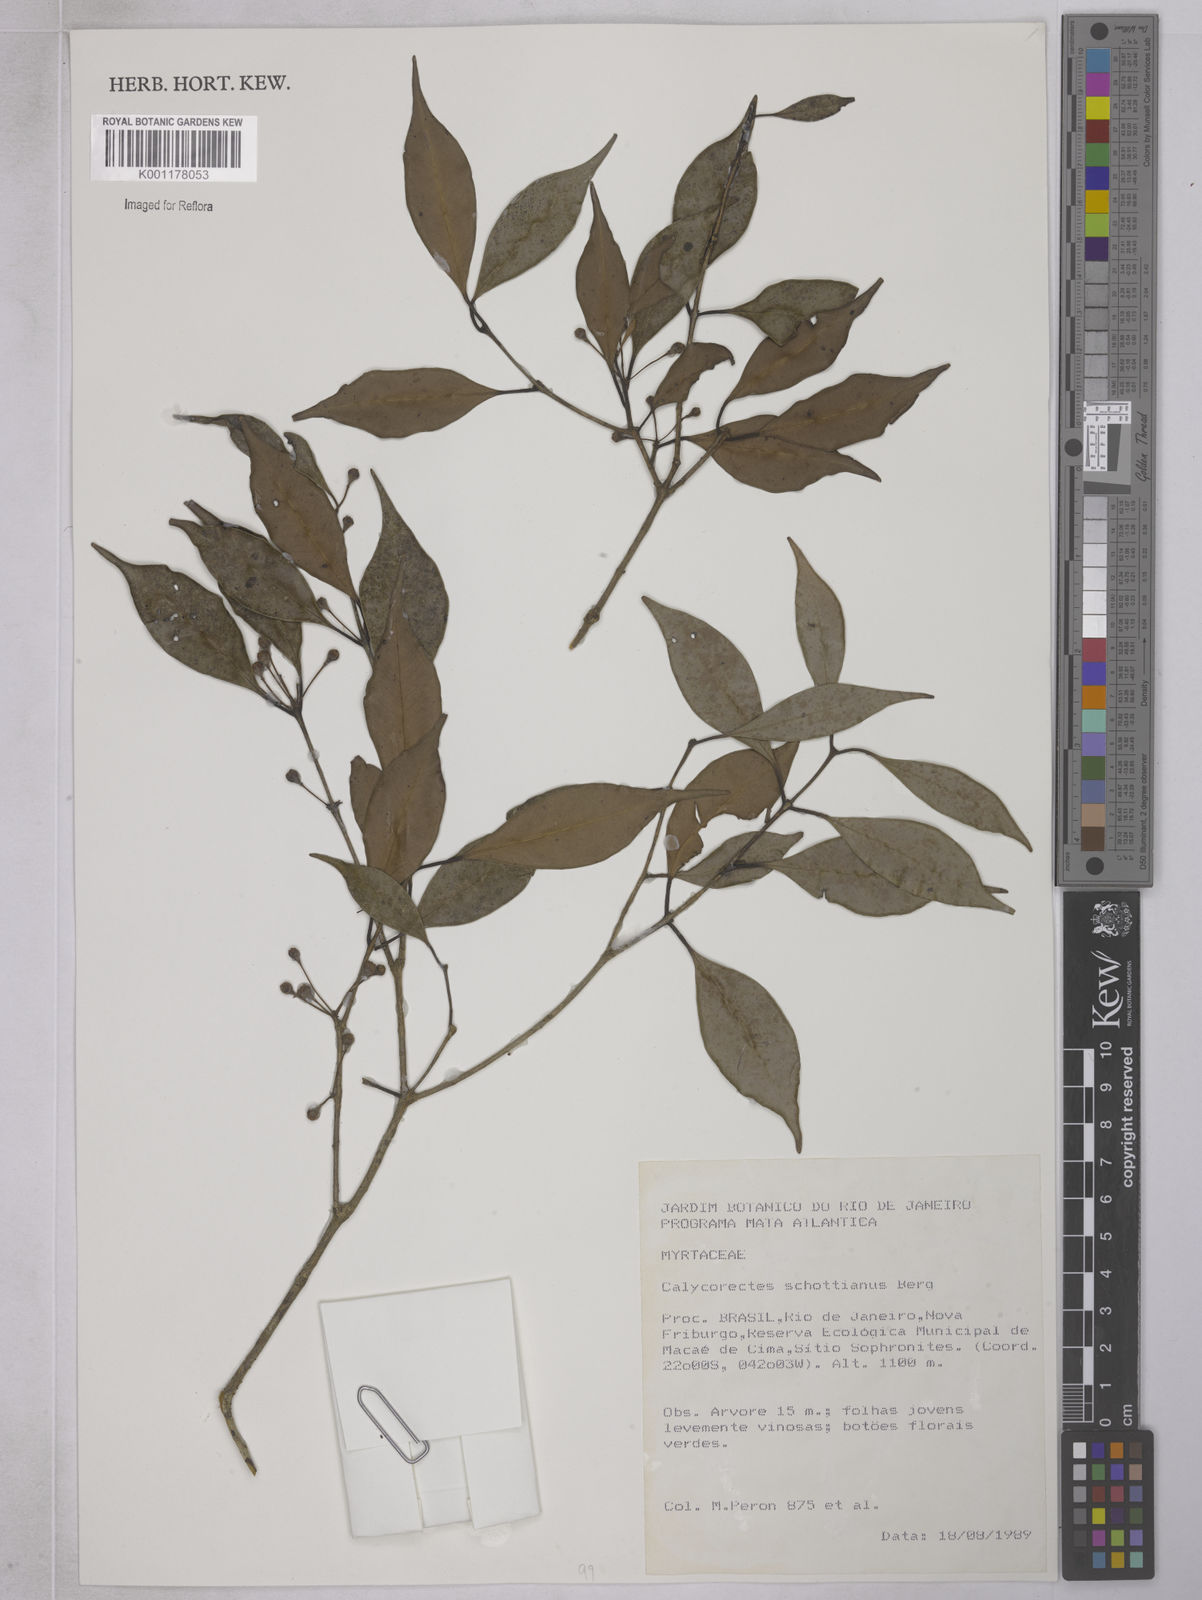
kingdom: Plantae
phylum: Tracheophyta
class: Magnoliopsida
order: Myrtales
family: Myrtaceae
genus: Eugenia
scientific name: Eugenia subterminalis
